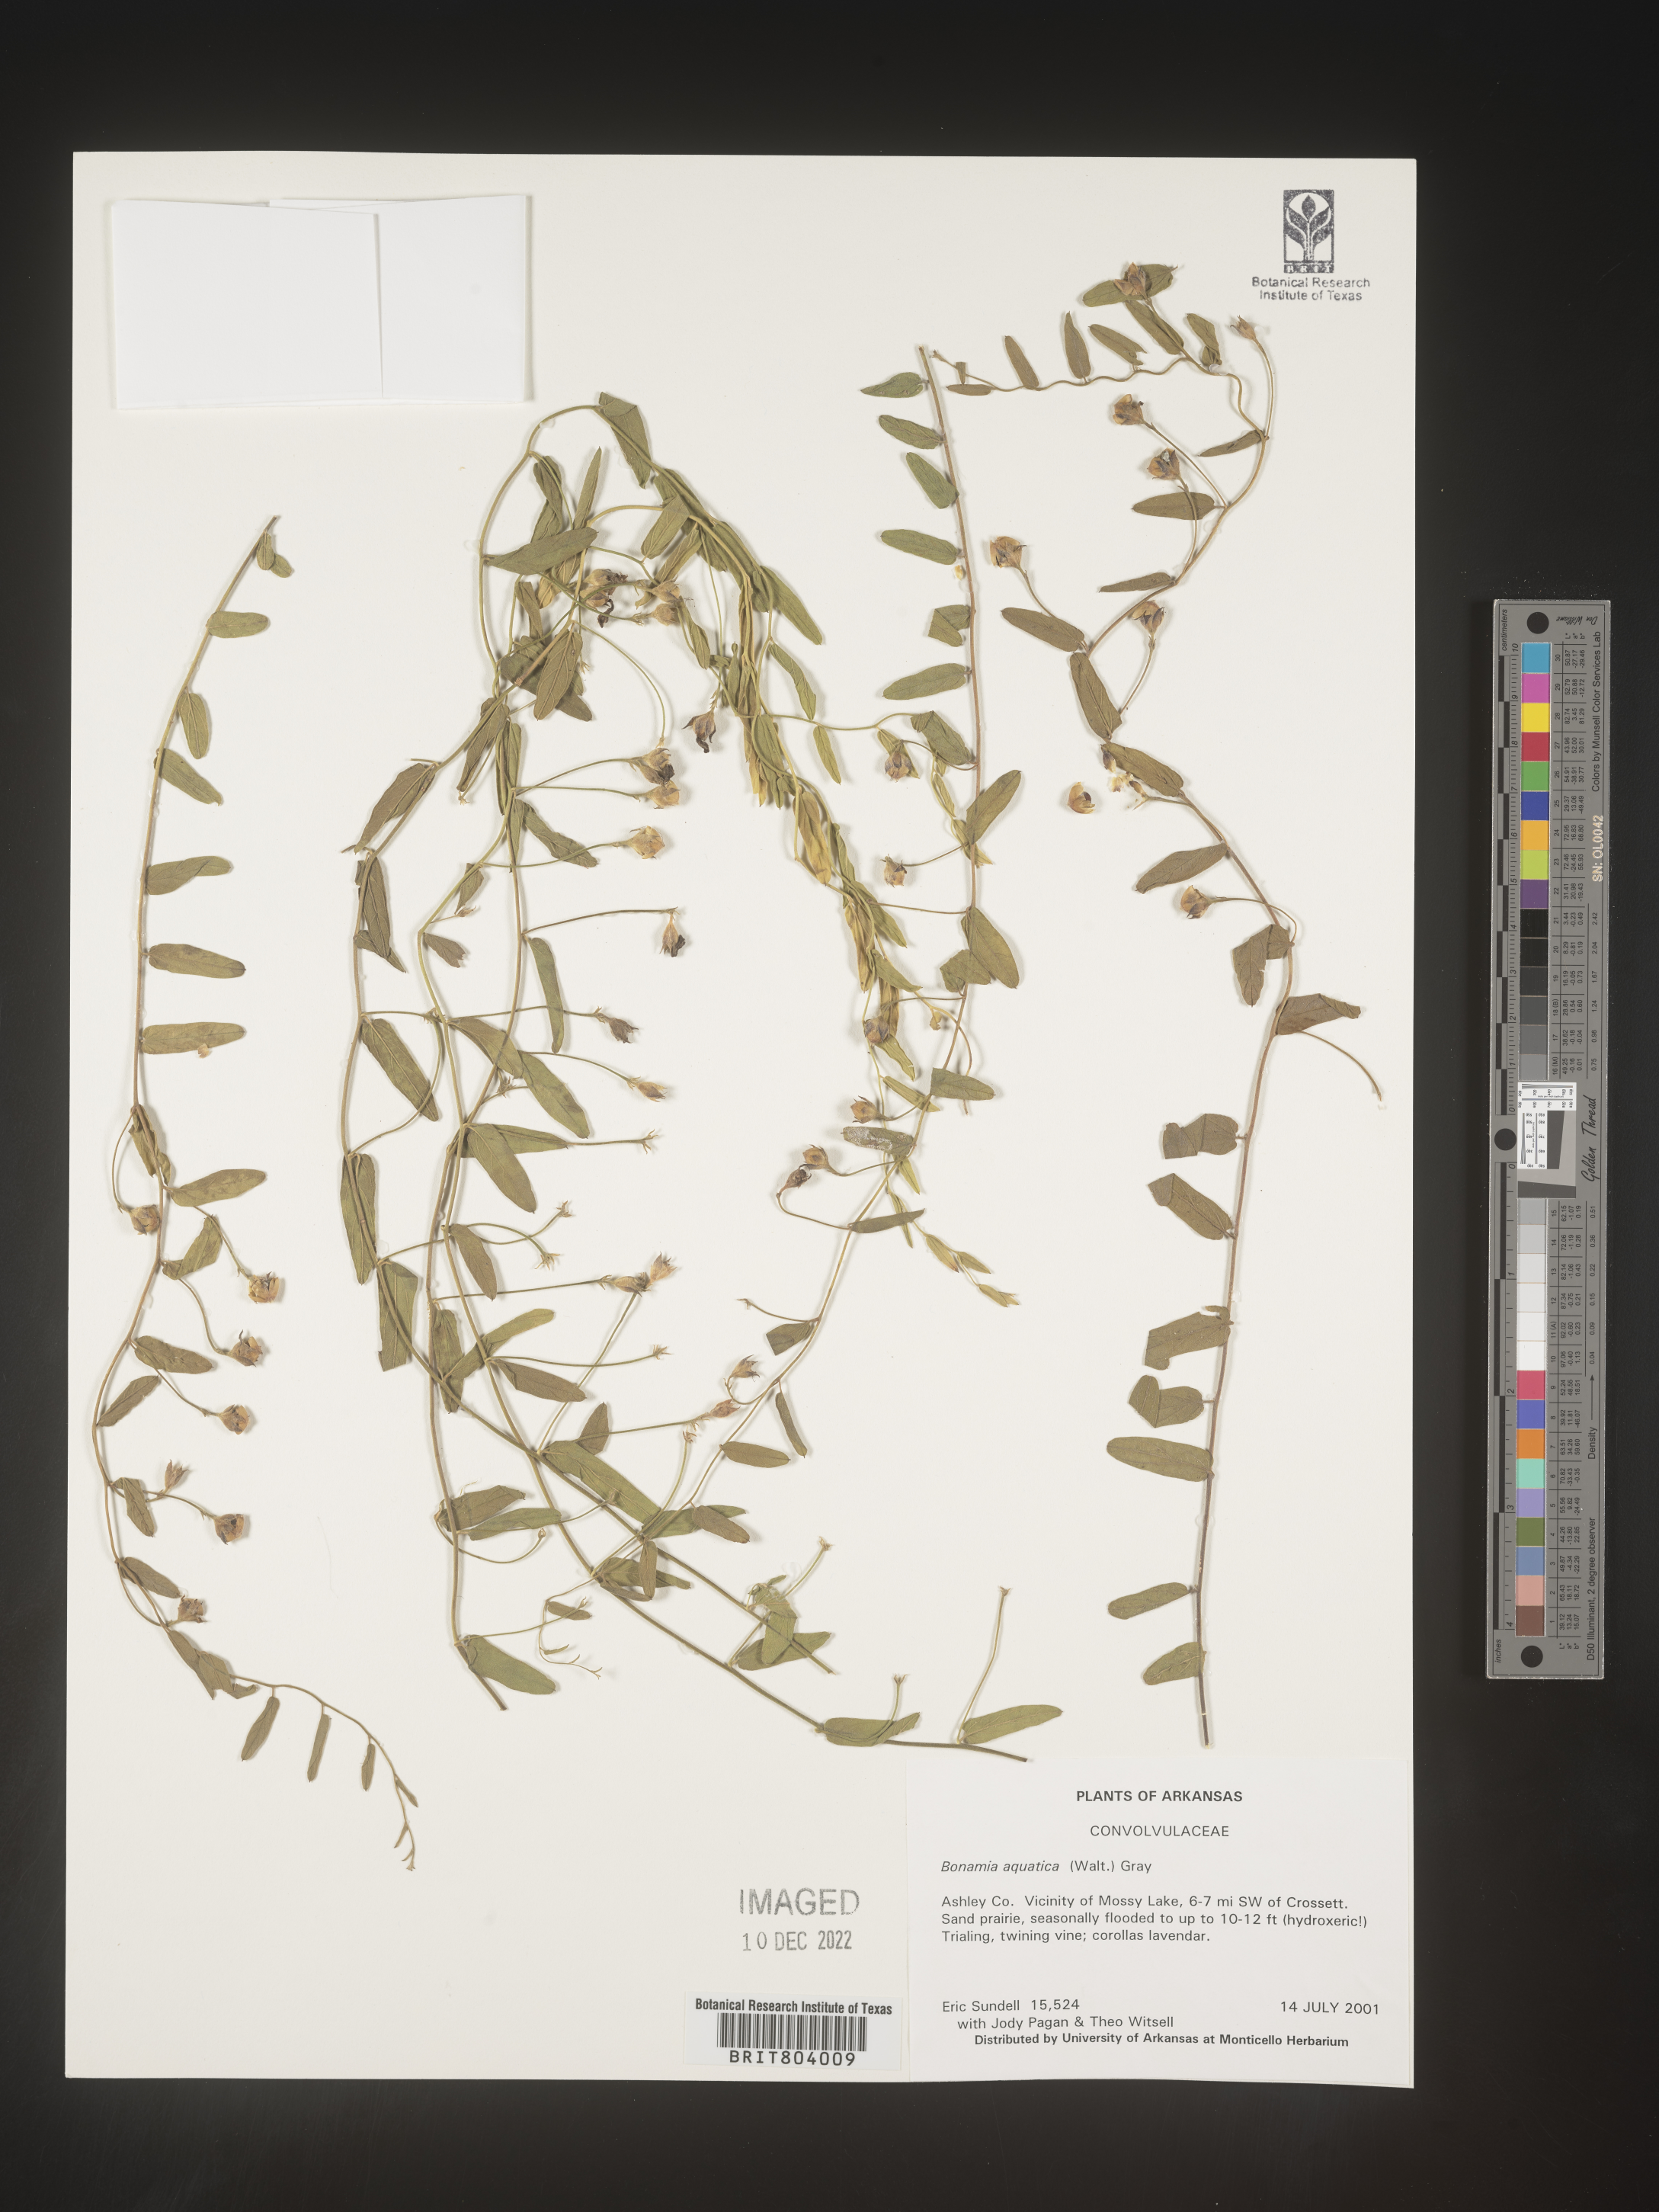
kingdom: Plantae
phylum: Tracheophyta
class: Magnoliopsida
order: Solanales
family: Convolvulaceae
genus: Bonamia
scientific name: Bonamia
